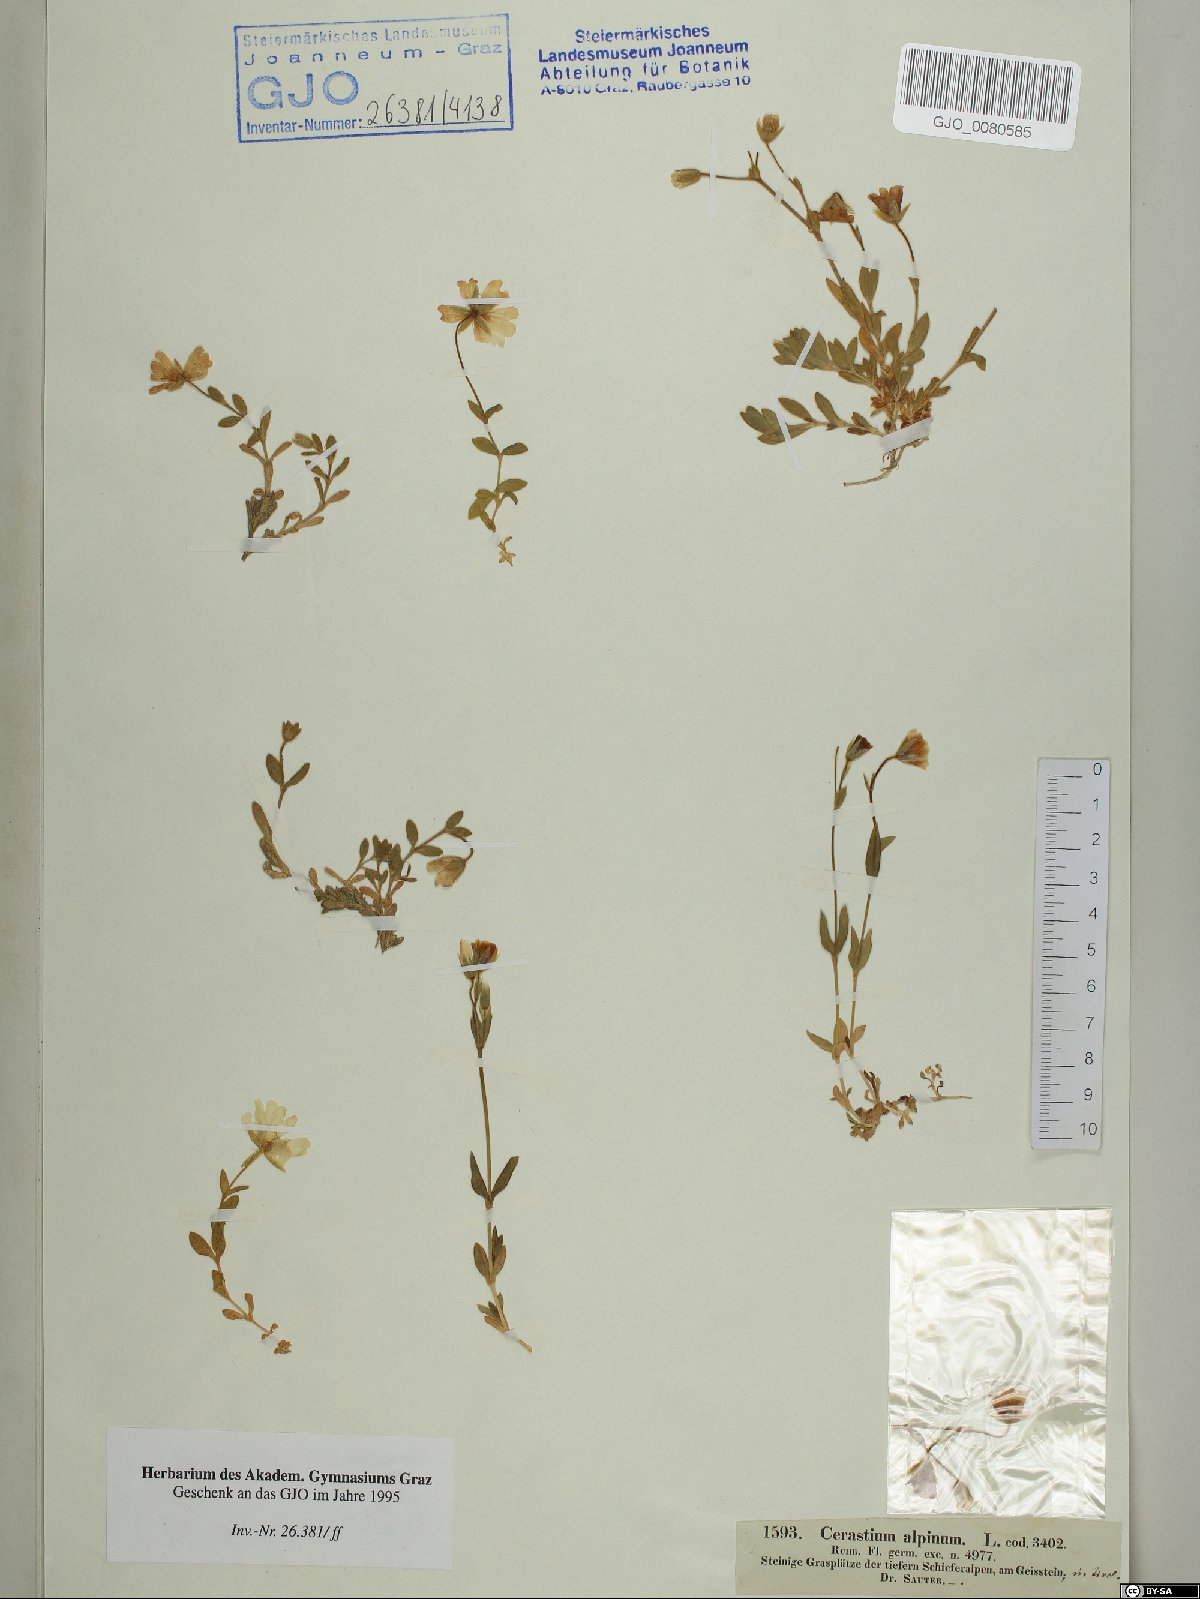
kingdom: Plantae
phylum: Tracheophyta
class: Magnoliopsida
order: Caryophyllales
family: Caryophyllaceae
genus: Cerastium
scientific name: Cerastium alpinum
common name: Alpine mouse-ear
